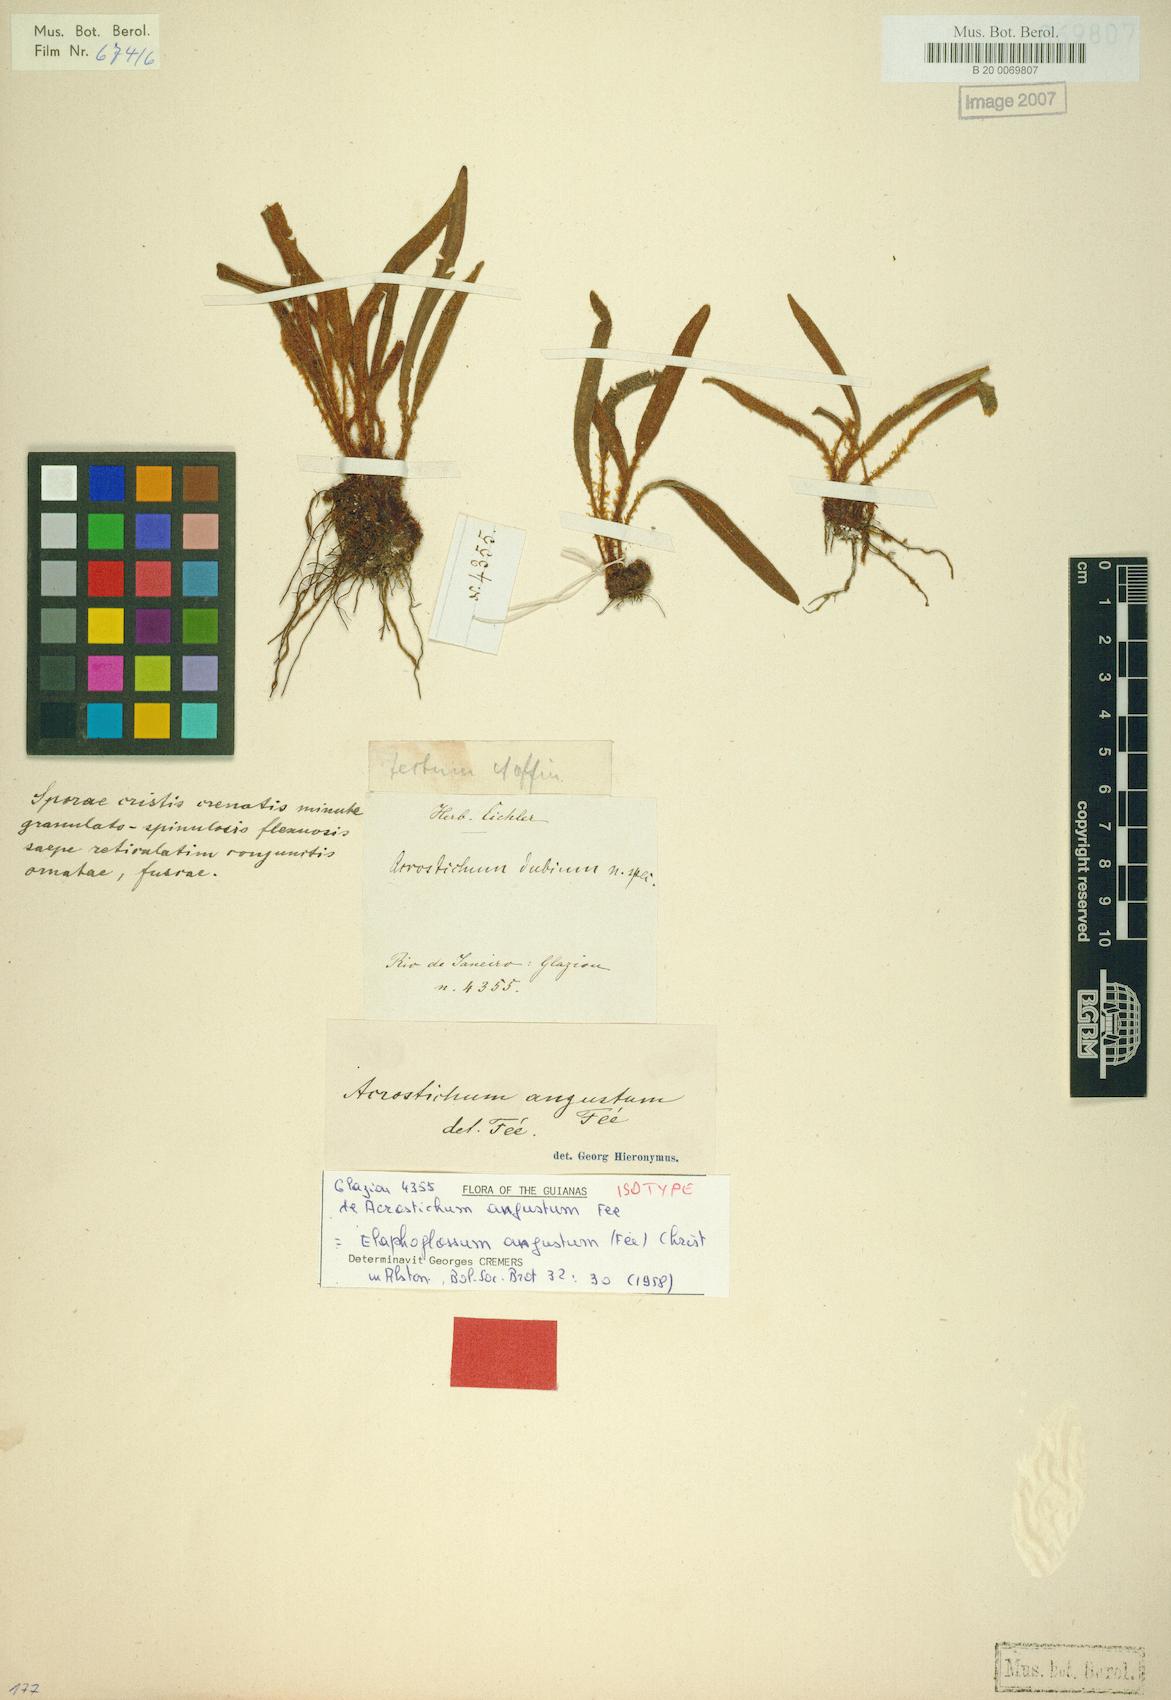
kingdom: Plantae
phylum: Tracheophyta
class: Polypodiopsida
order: Polypodiales
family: Dryopteridaceae
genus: Elaphoglossum
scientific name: Elaphoglossum angustum
